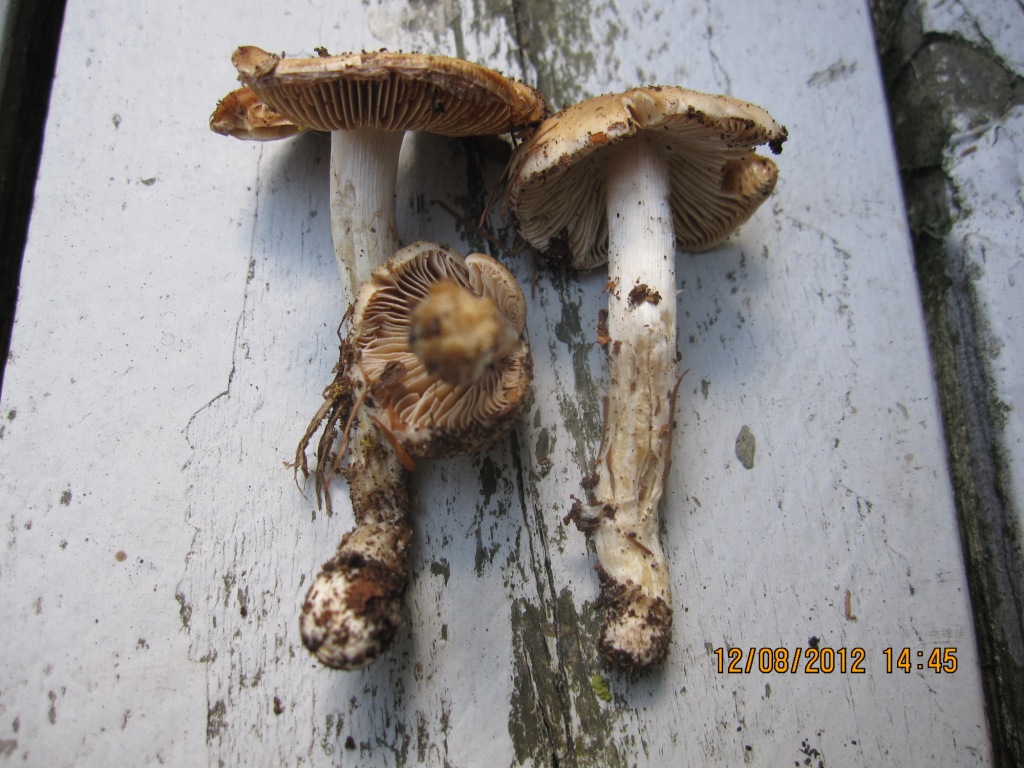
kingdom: Fungi
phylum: Basidiomycota
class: Agaricomycetes
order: Agaricales
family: Cortinariaceae
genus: Cortinarius
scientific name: Cortinarius elatior
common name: høj slørhat
